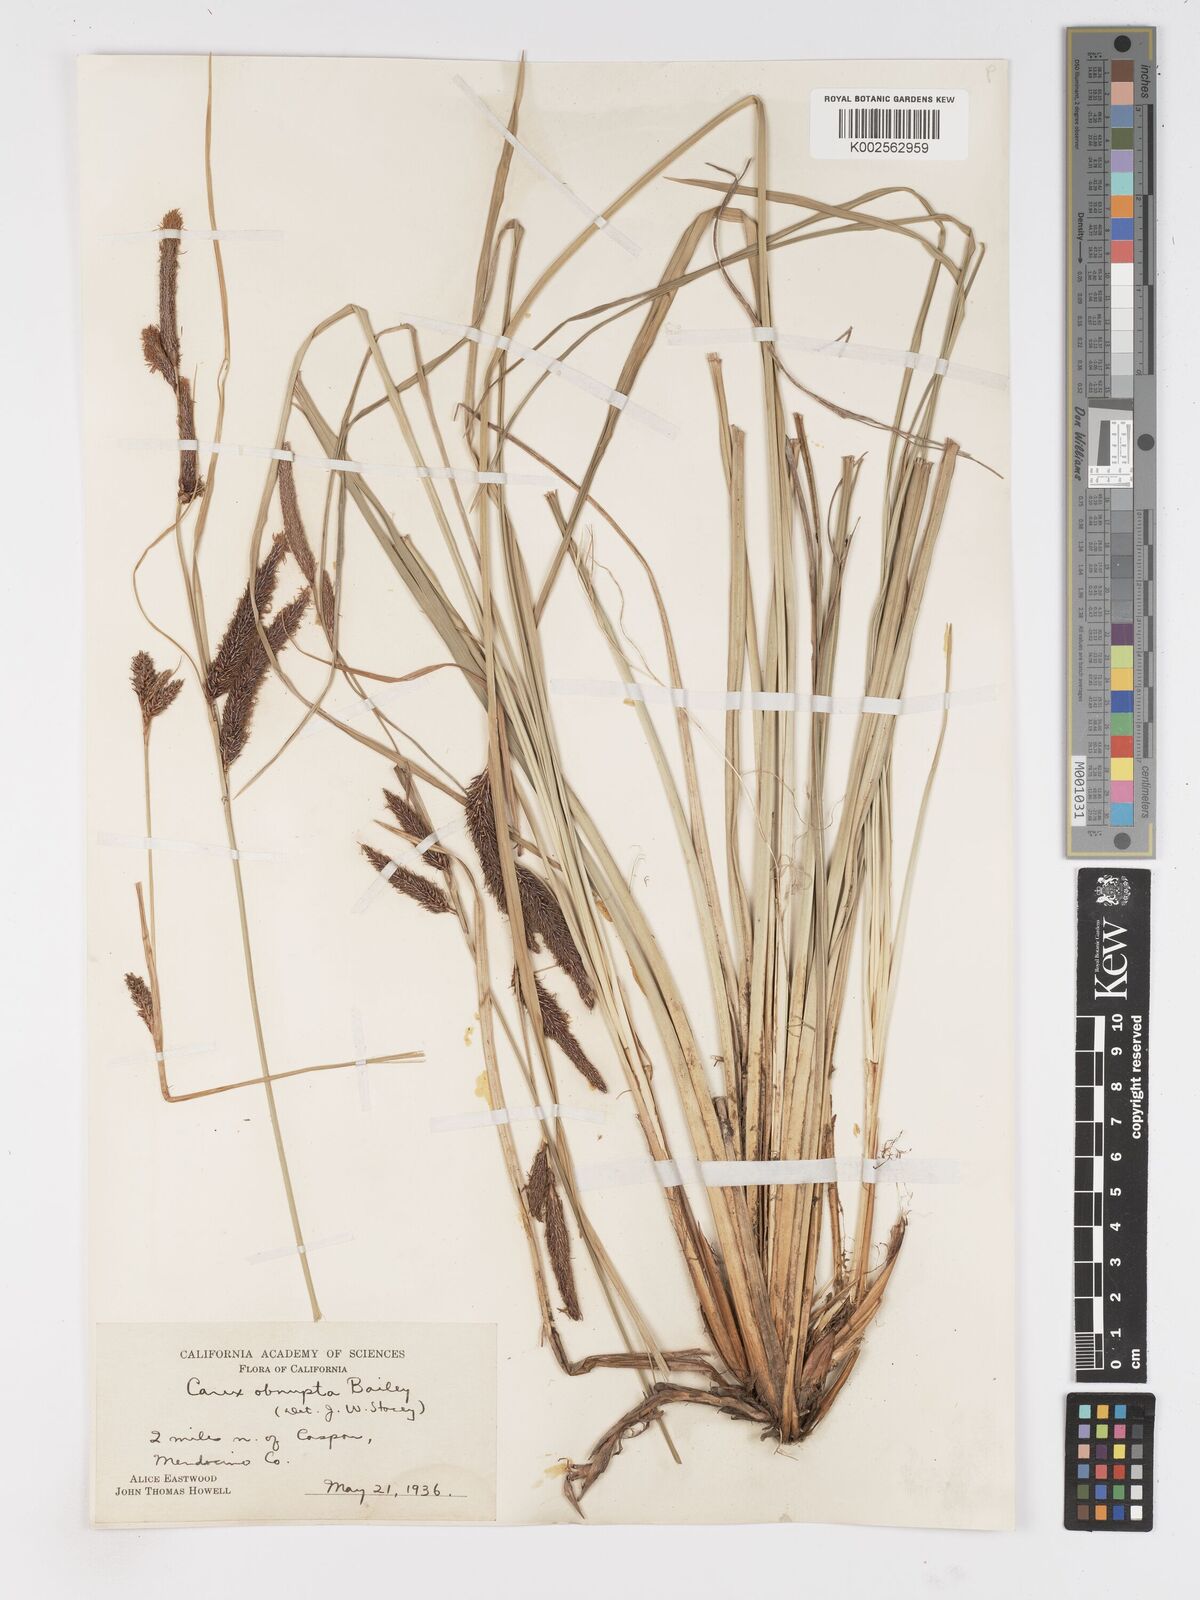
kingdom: Plantae
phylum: Tracheophyta
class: Liliopsida
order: Poales
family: Cyperaceae
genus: Carex
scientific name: Carex obnupta
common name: Slough sedge
